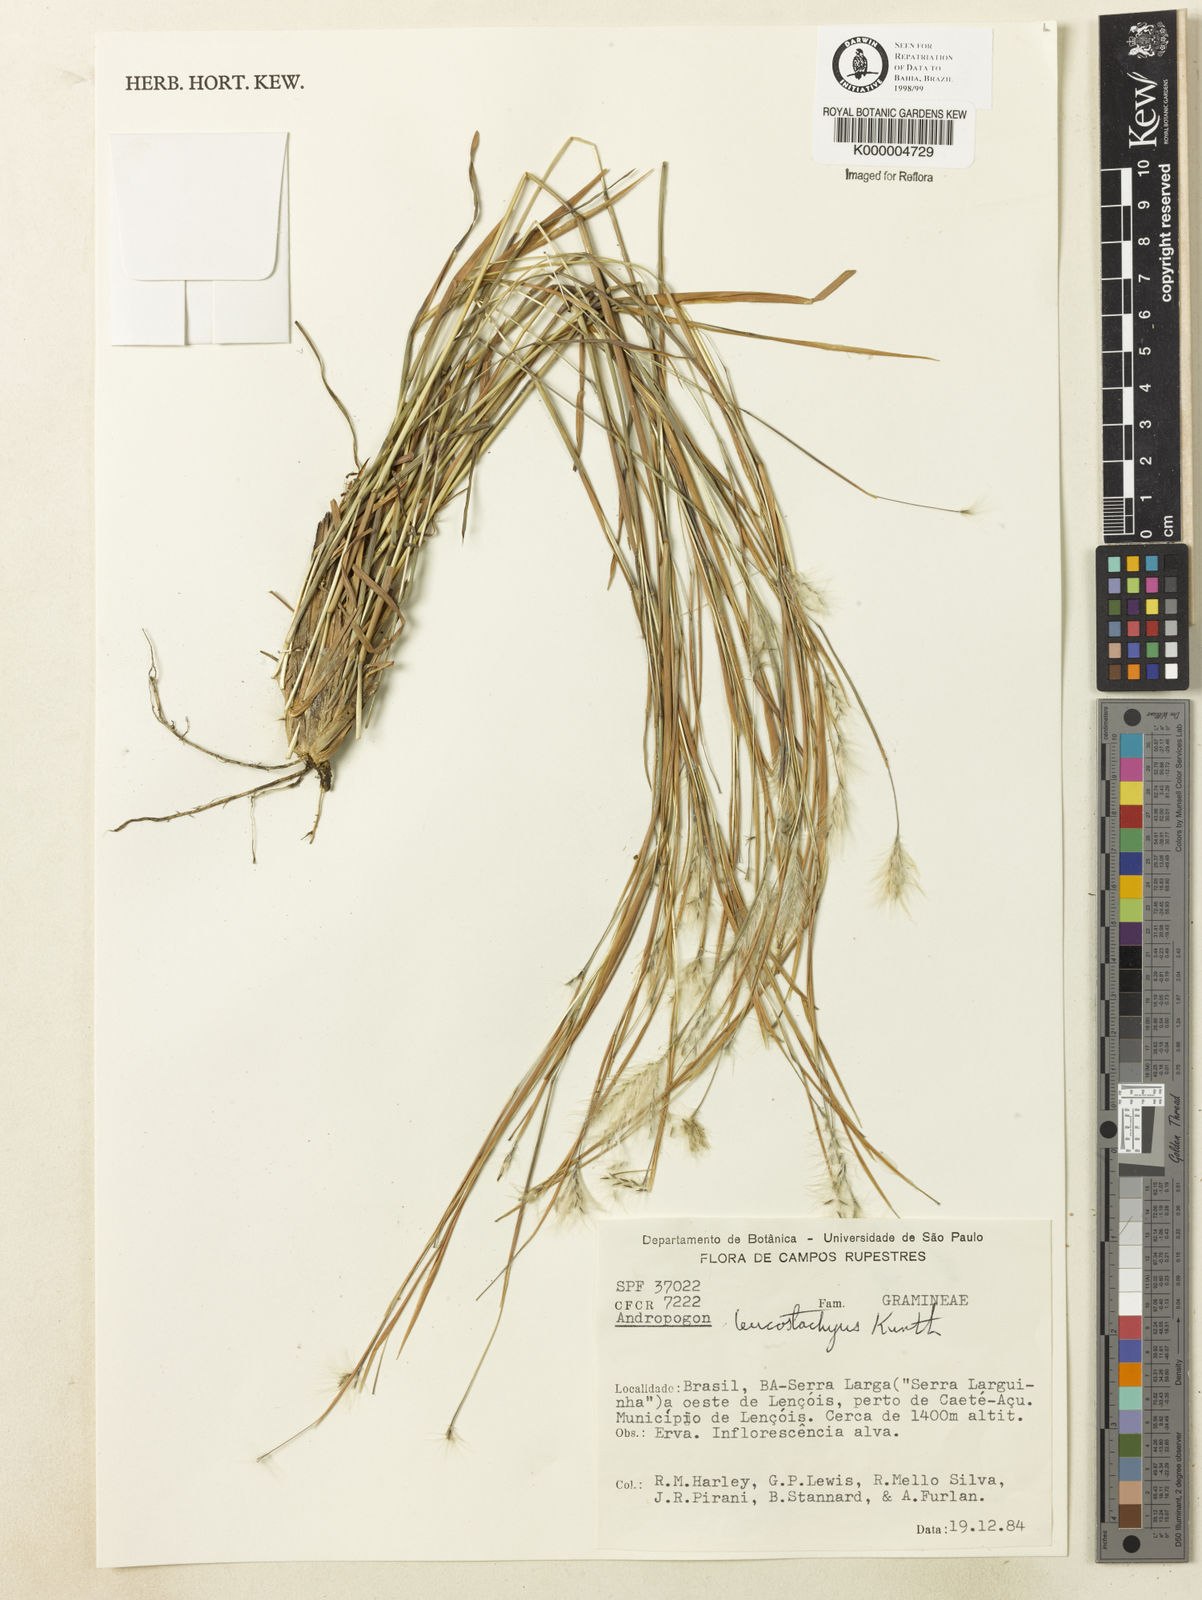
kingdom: Plantae
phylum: Tracheophyta
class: Liliopsida
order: Poales
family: Poaceae
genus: Andropogon
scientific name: Andropogon leucostachyus
